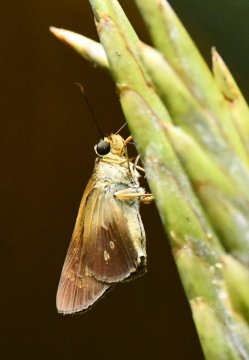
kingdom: Animalia
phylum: Arthropoda
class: Insecta
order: Lepidoptera
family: Hesperiidae
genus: Saliana
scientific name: Saliana triangularis
